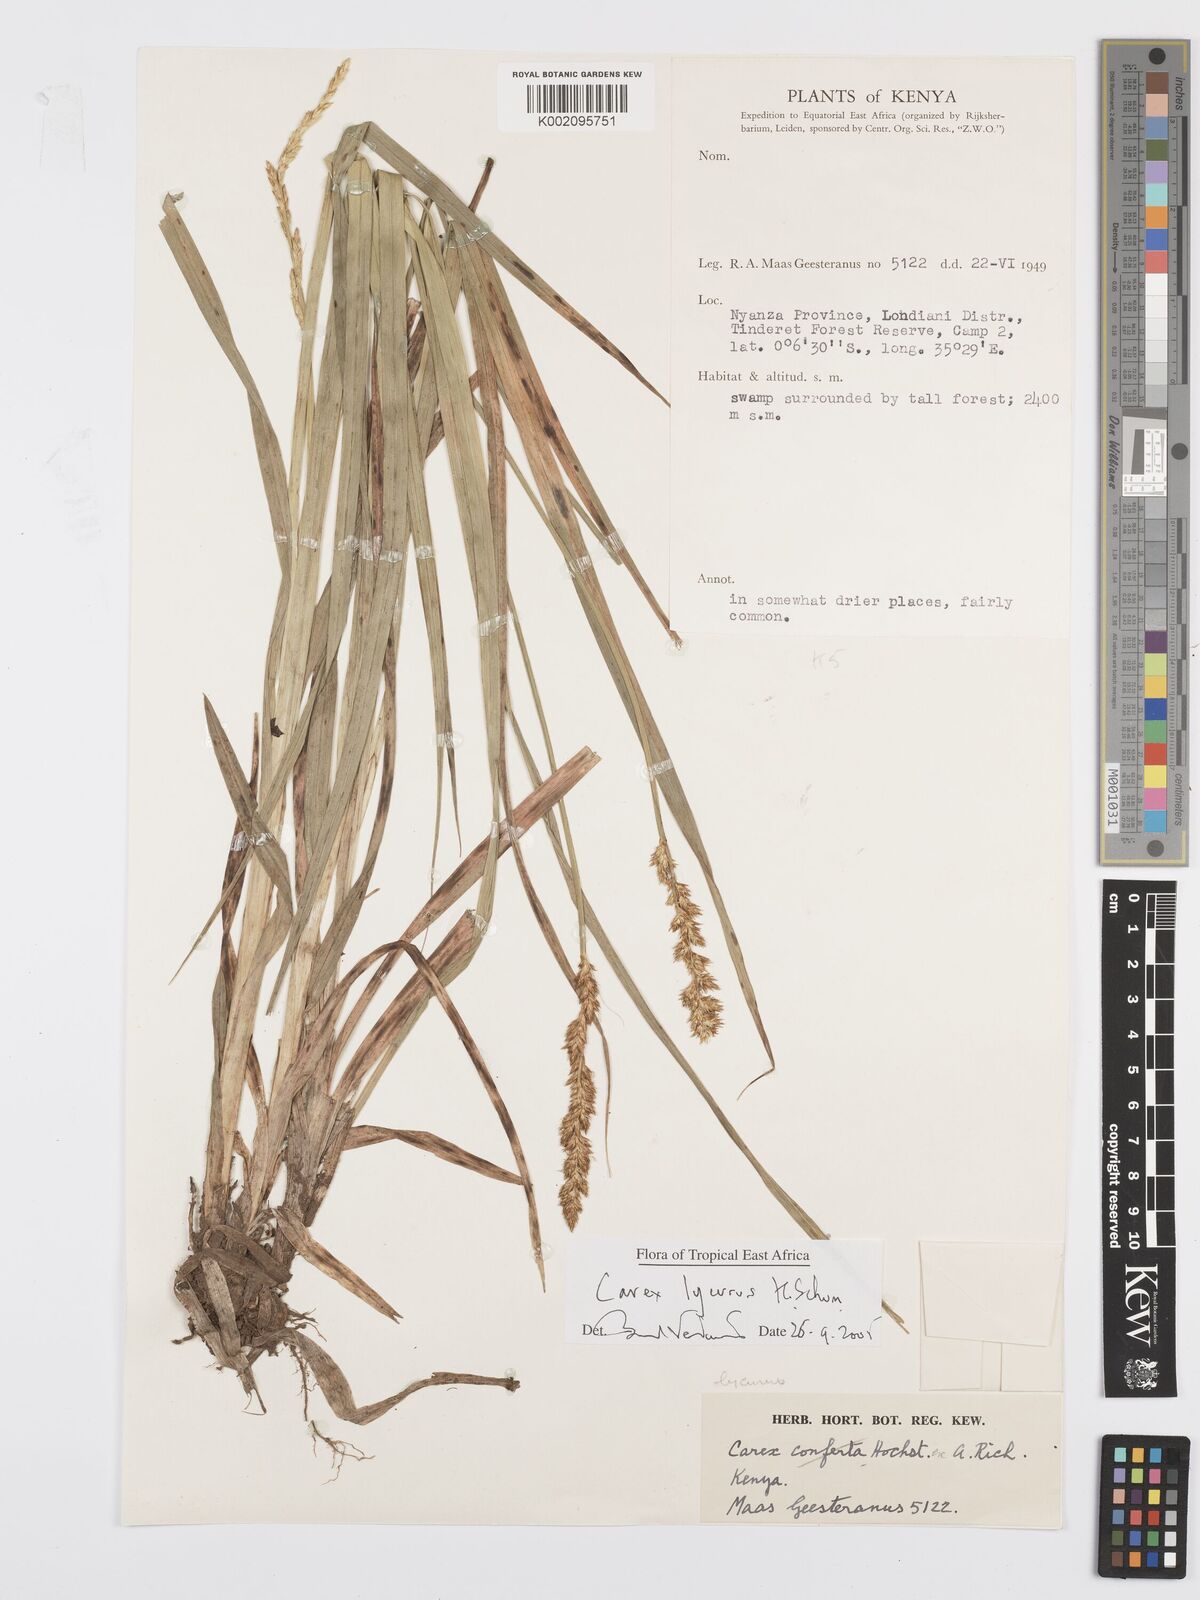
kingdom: Plantae
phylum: Tracheophyta
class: Liliopsida
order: Poales
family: Cyperaceae
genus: Carex
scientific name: Carex lycurus
